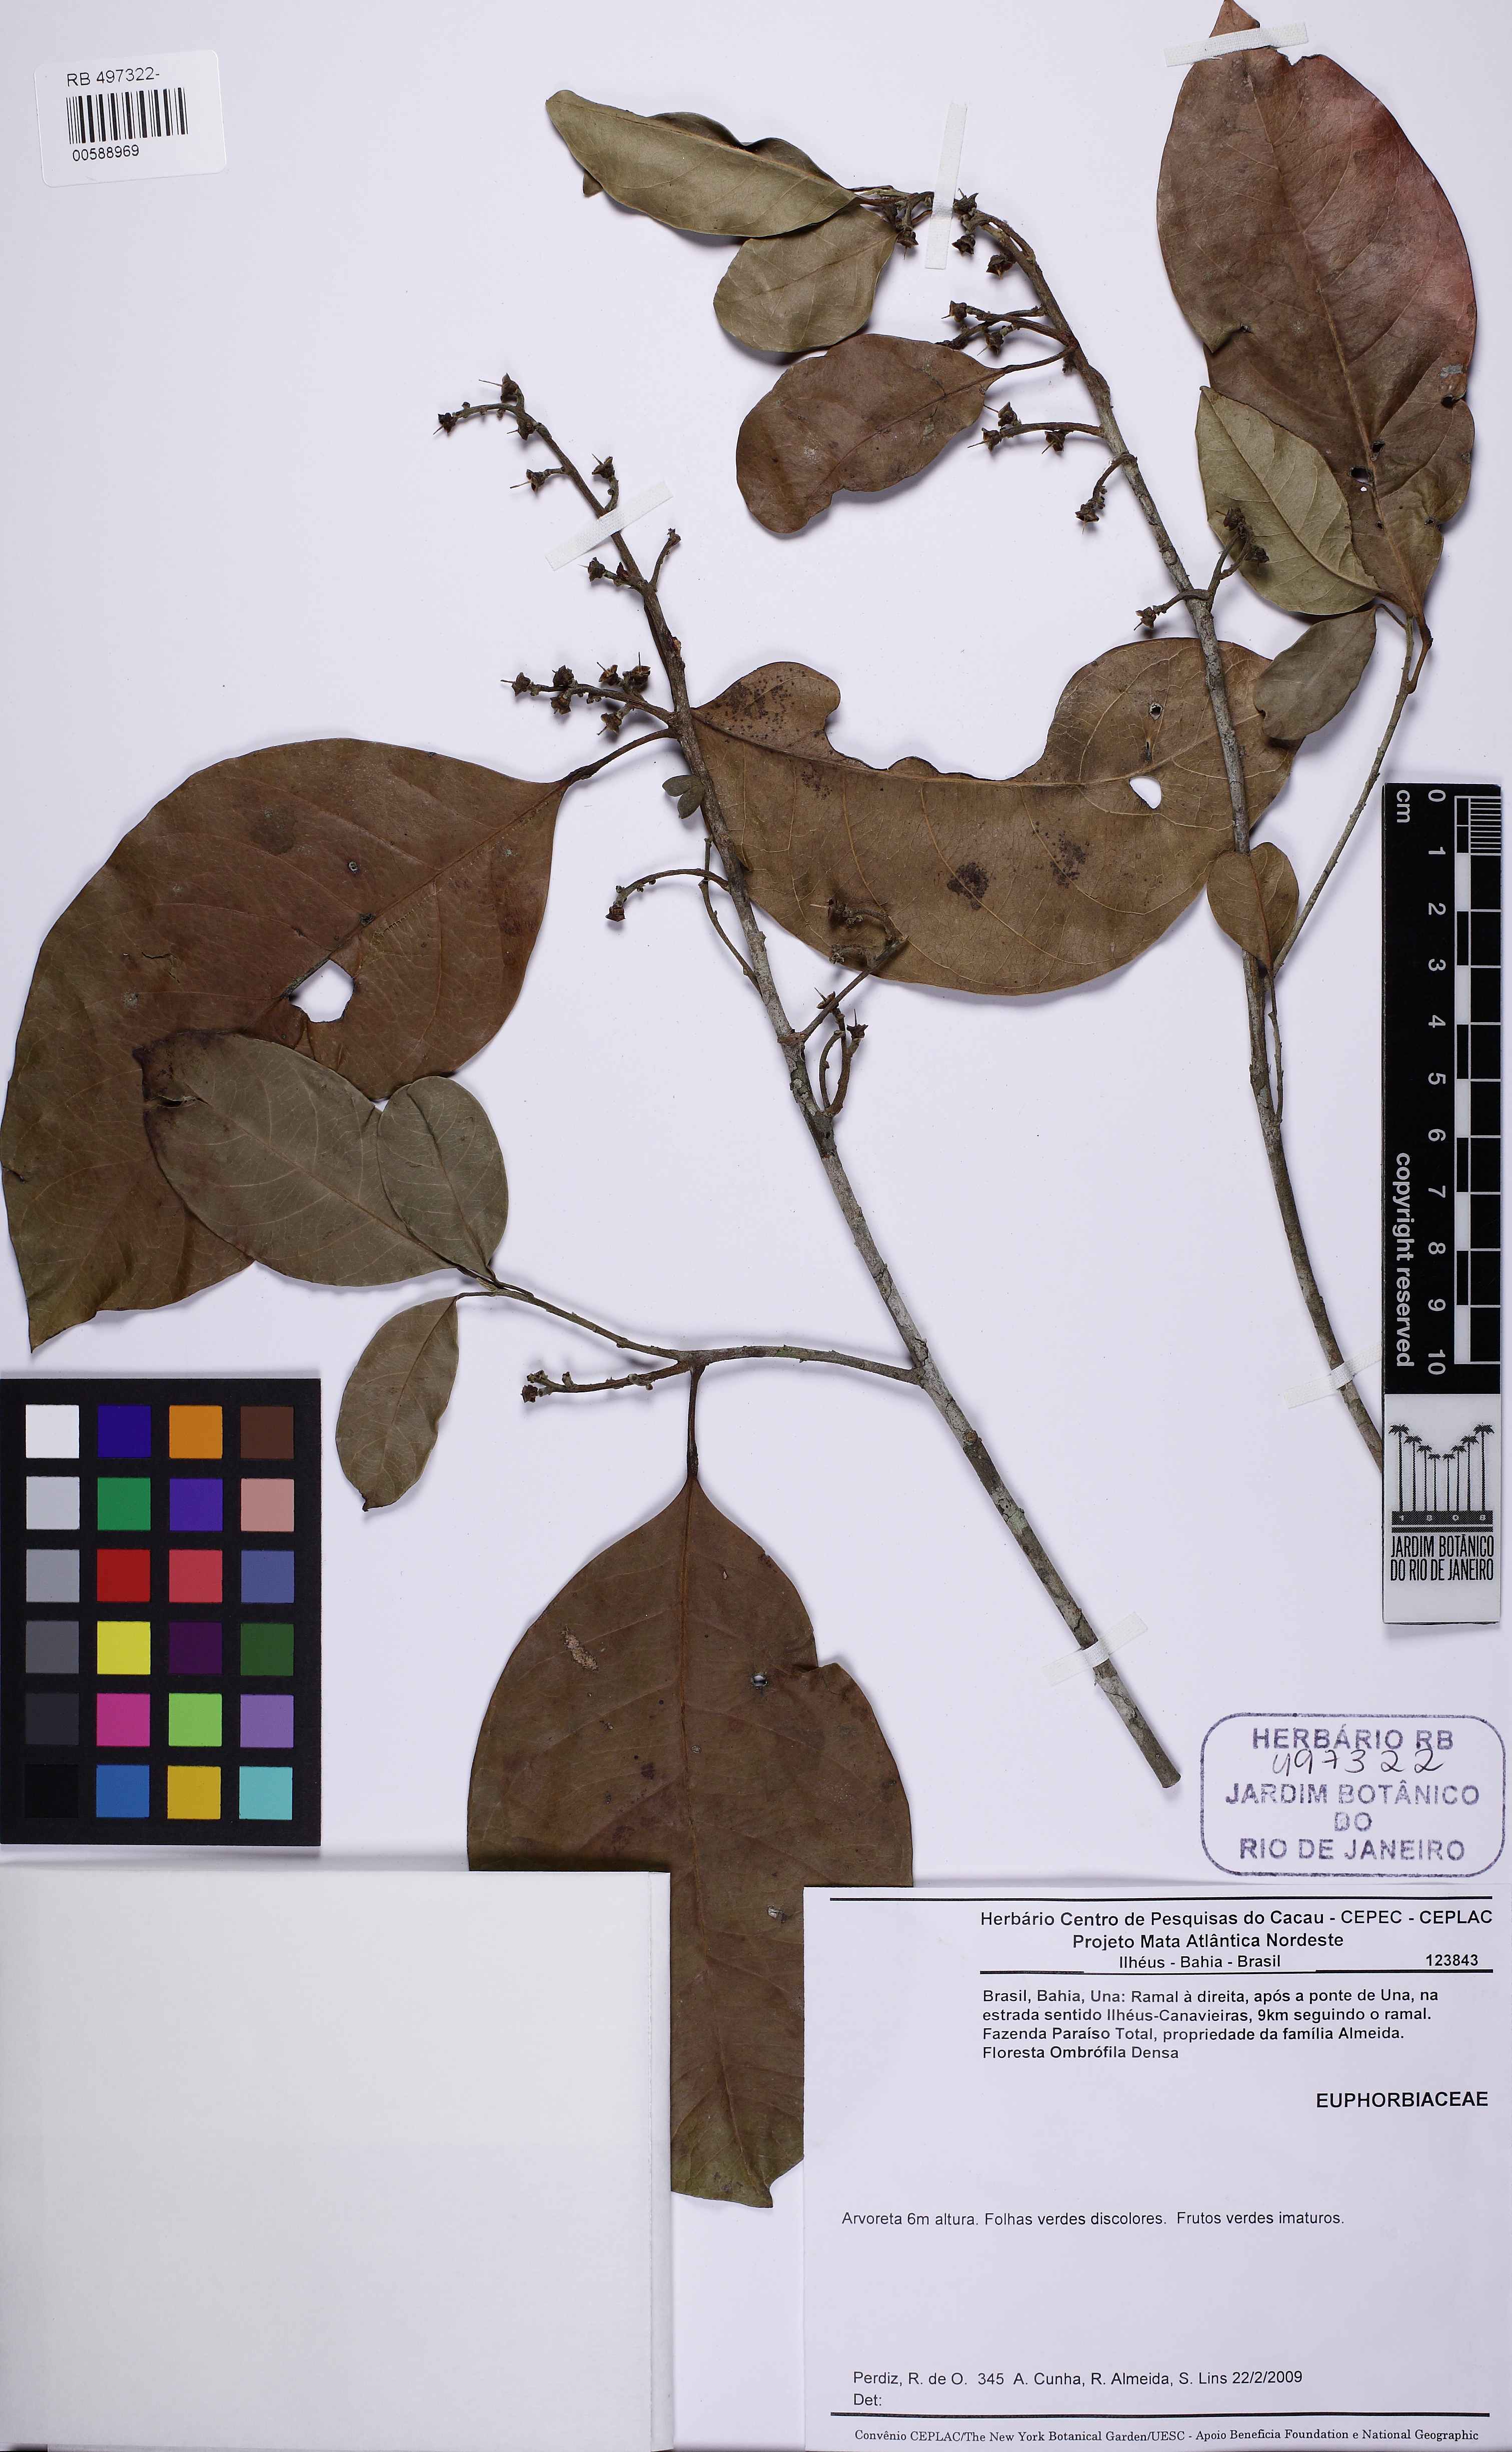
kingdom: Plantae
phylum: Tracheophyta
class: Magnoliopsida
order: Malpighiales
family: Peraceae
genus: Pogonophora
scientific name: Pogonophora schomburgkiana
